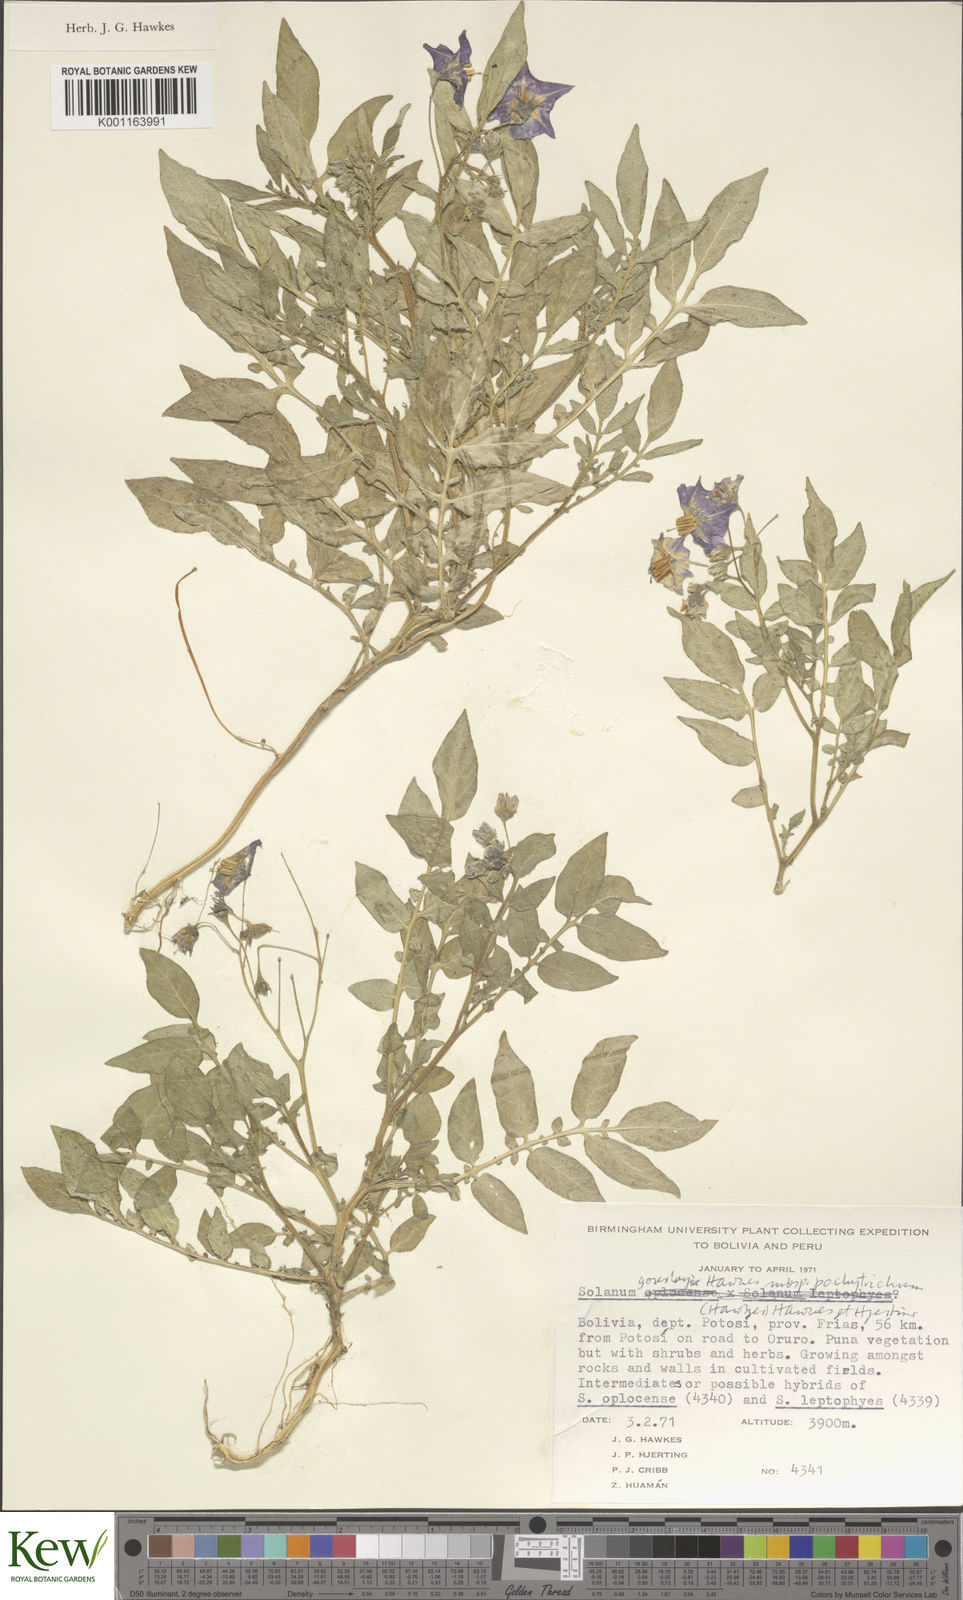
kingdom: Plantae
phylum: Tracheophyta
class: Magnoliopsida
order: Solanales
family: Solanaceae
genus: Solanum
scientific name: Solanum brevicaule
